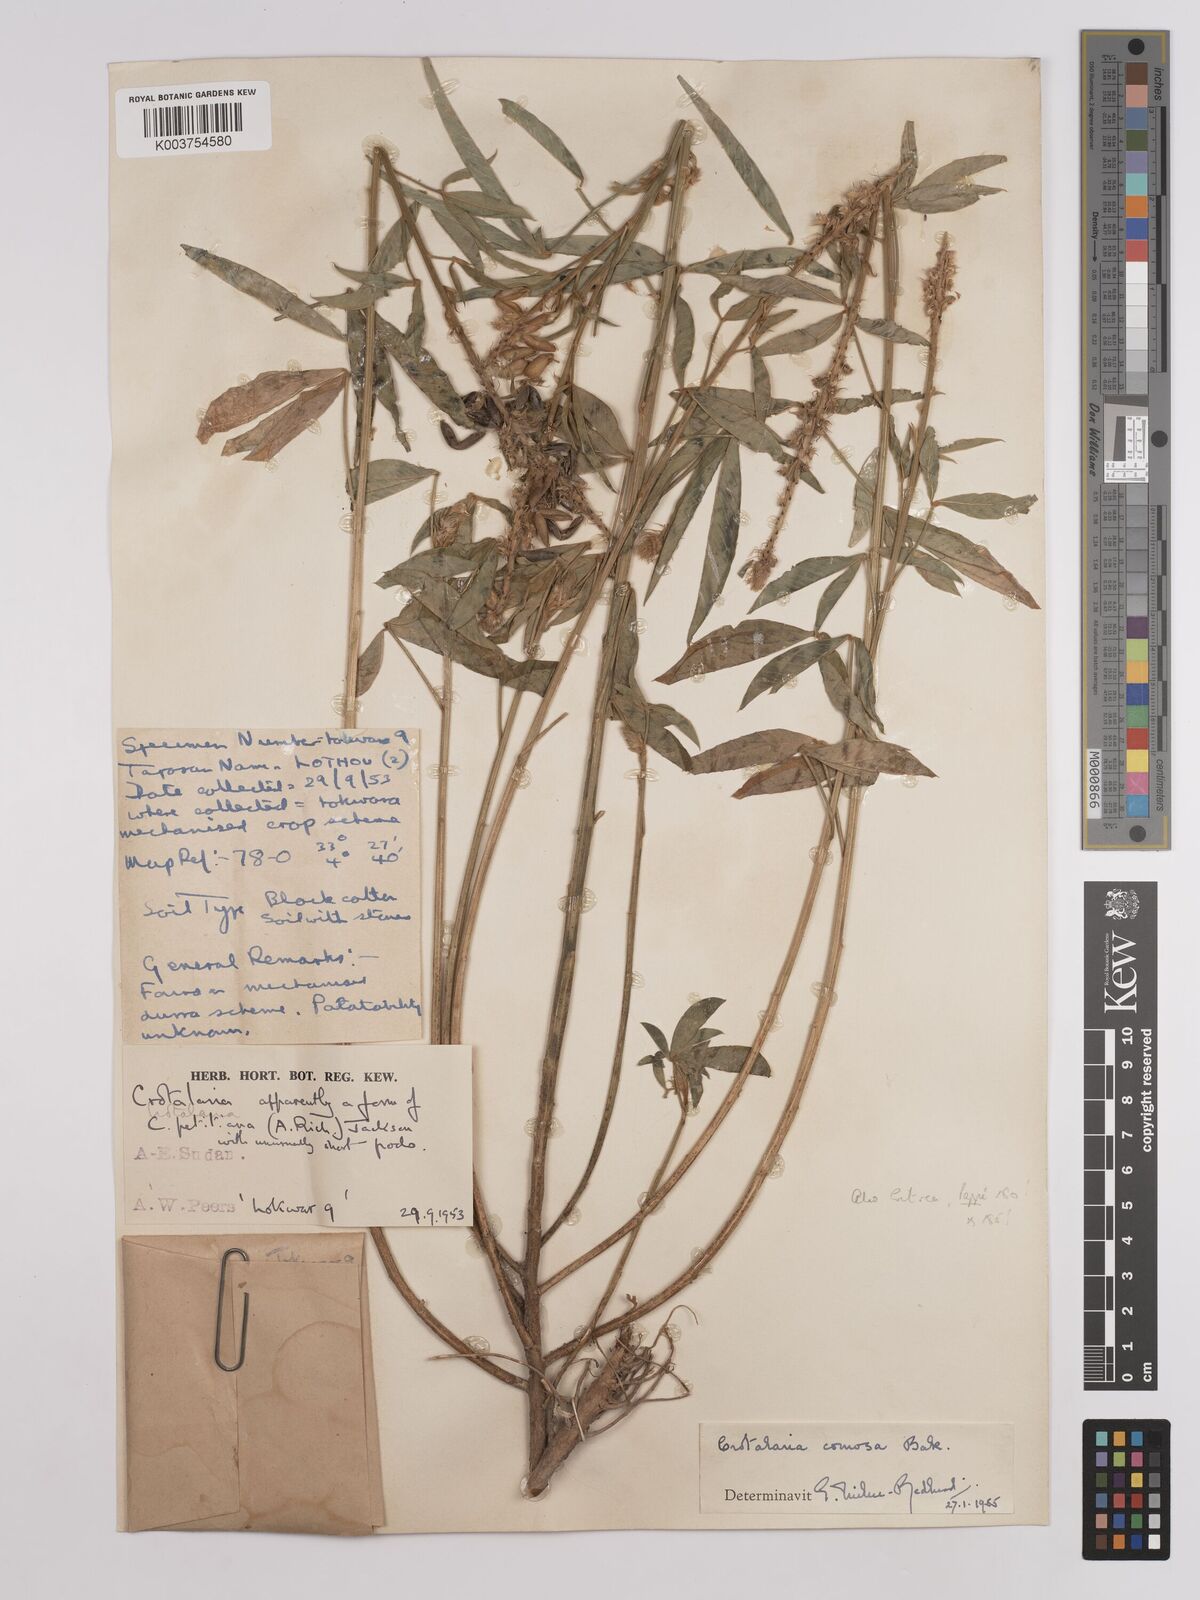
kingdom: Plantae
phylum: Tracheophyta
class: Magnoliopsida
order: Fabales
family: Fabaceae
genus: Crotalaria
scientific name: Crotalaria comosa
